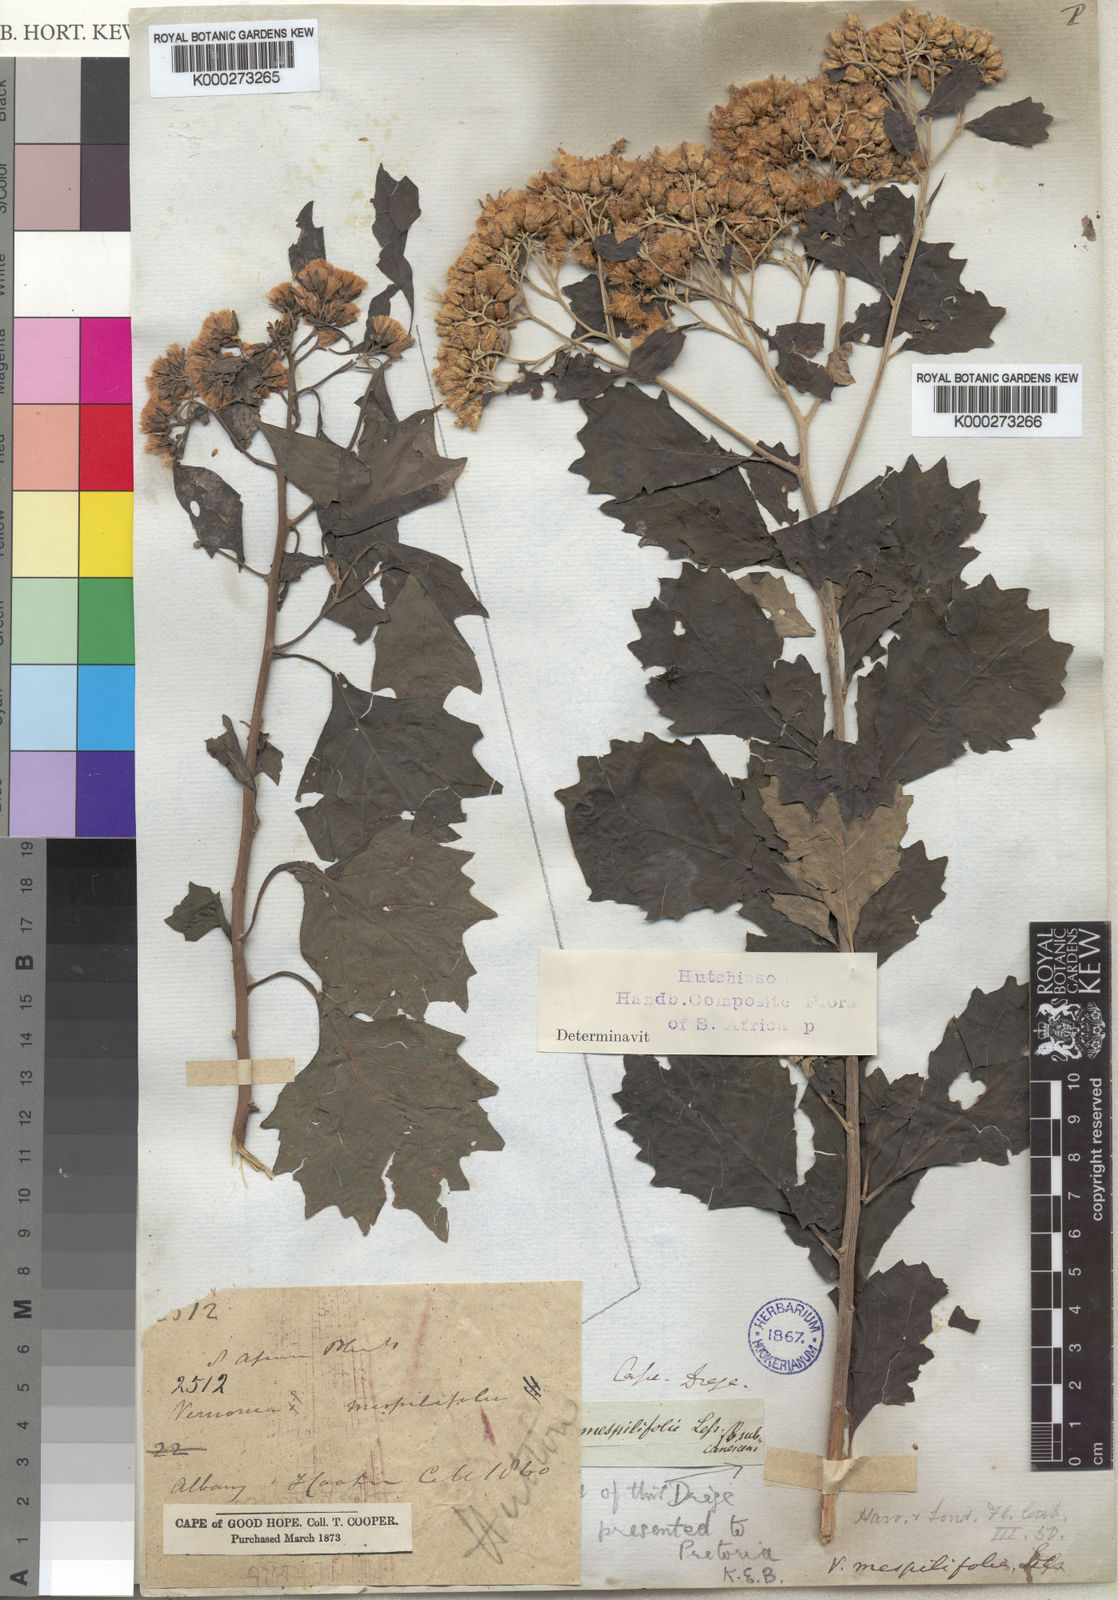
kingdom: Plantae
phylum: Tracheophyta
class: Magnoliopsida
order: Asterales
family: Asteraceae
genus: Gymnanthemum
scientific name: Gymnanthemum capense
